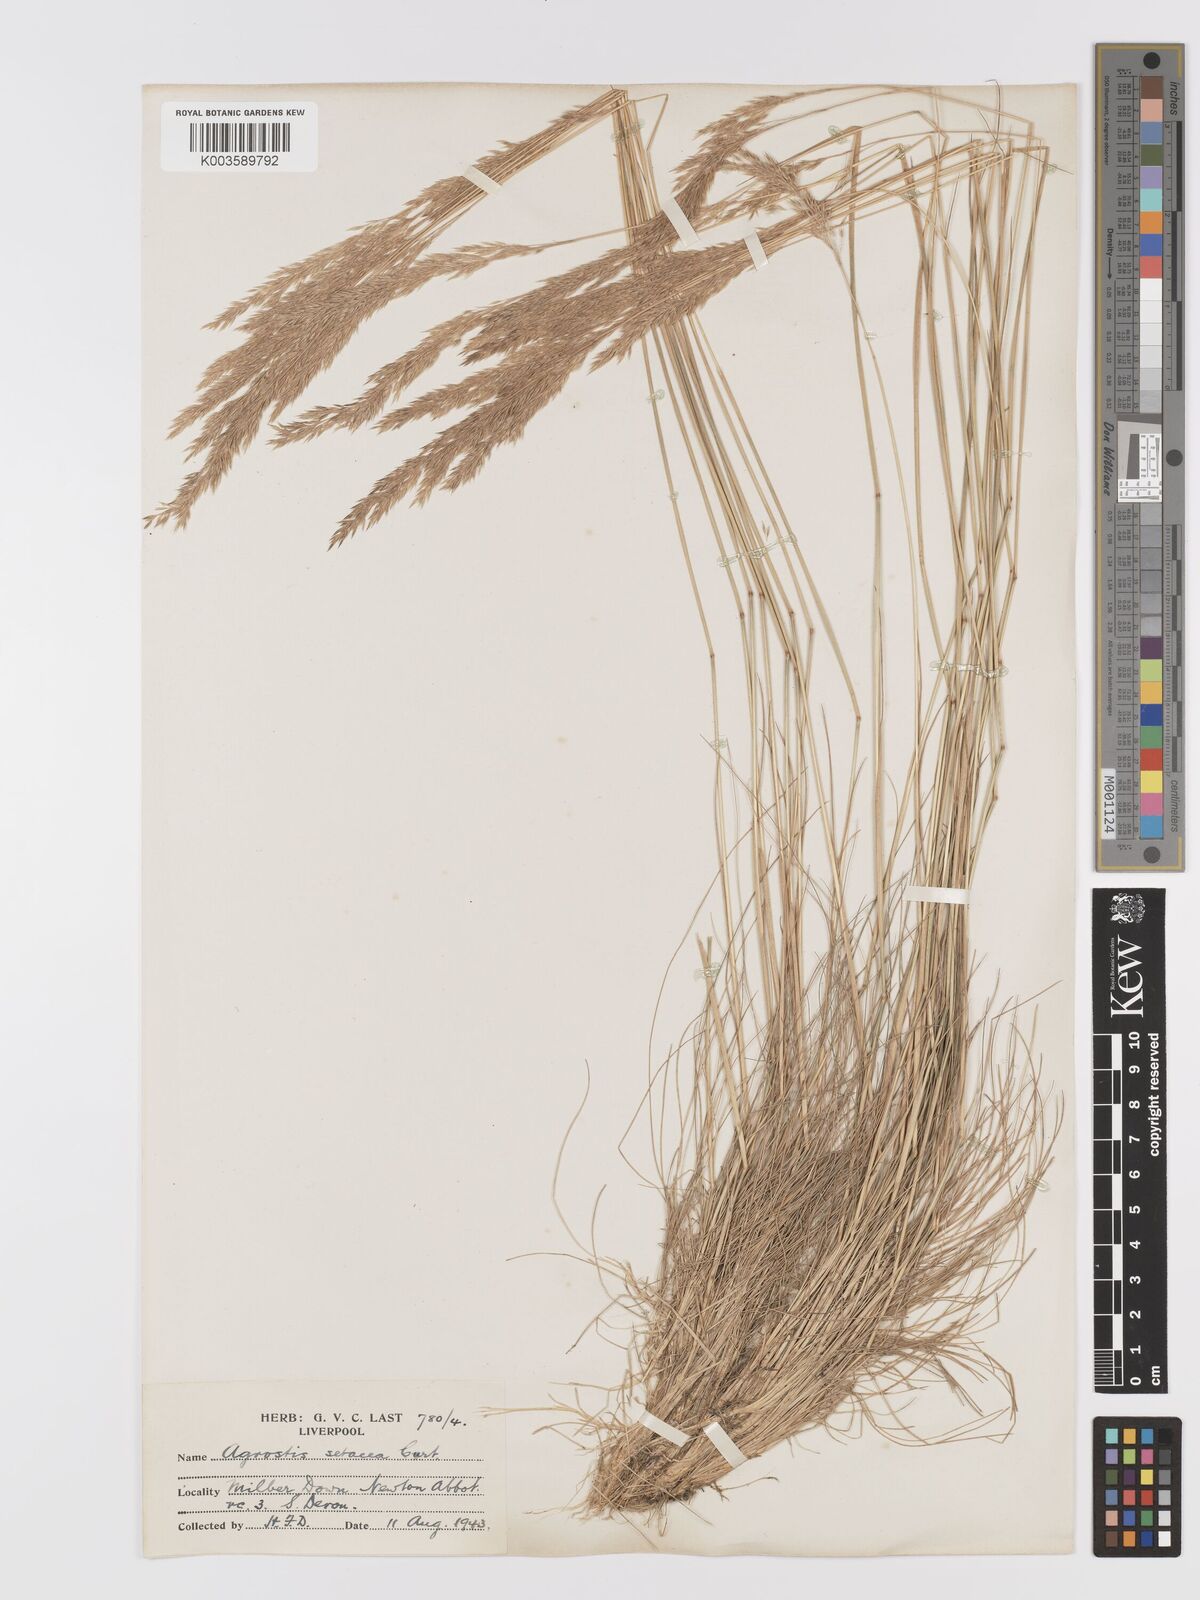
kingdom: Plantae
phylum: Tracheophyta
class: Liliopsida
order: Poales
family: Poaceae
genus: Alpagrostis
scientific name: Alpagrostis setacea
